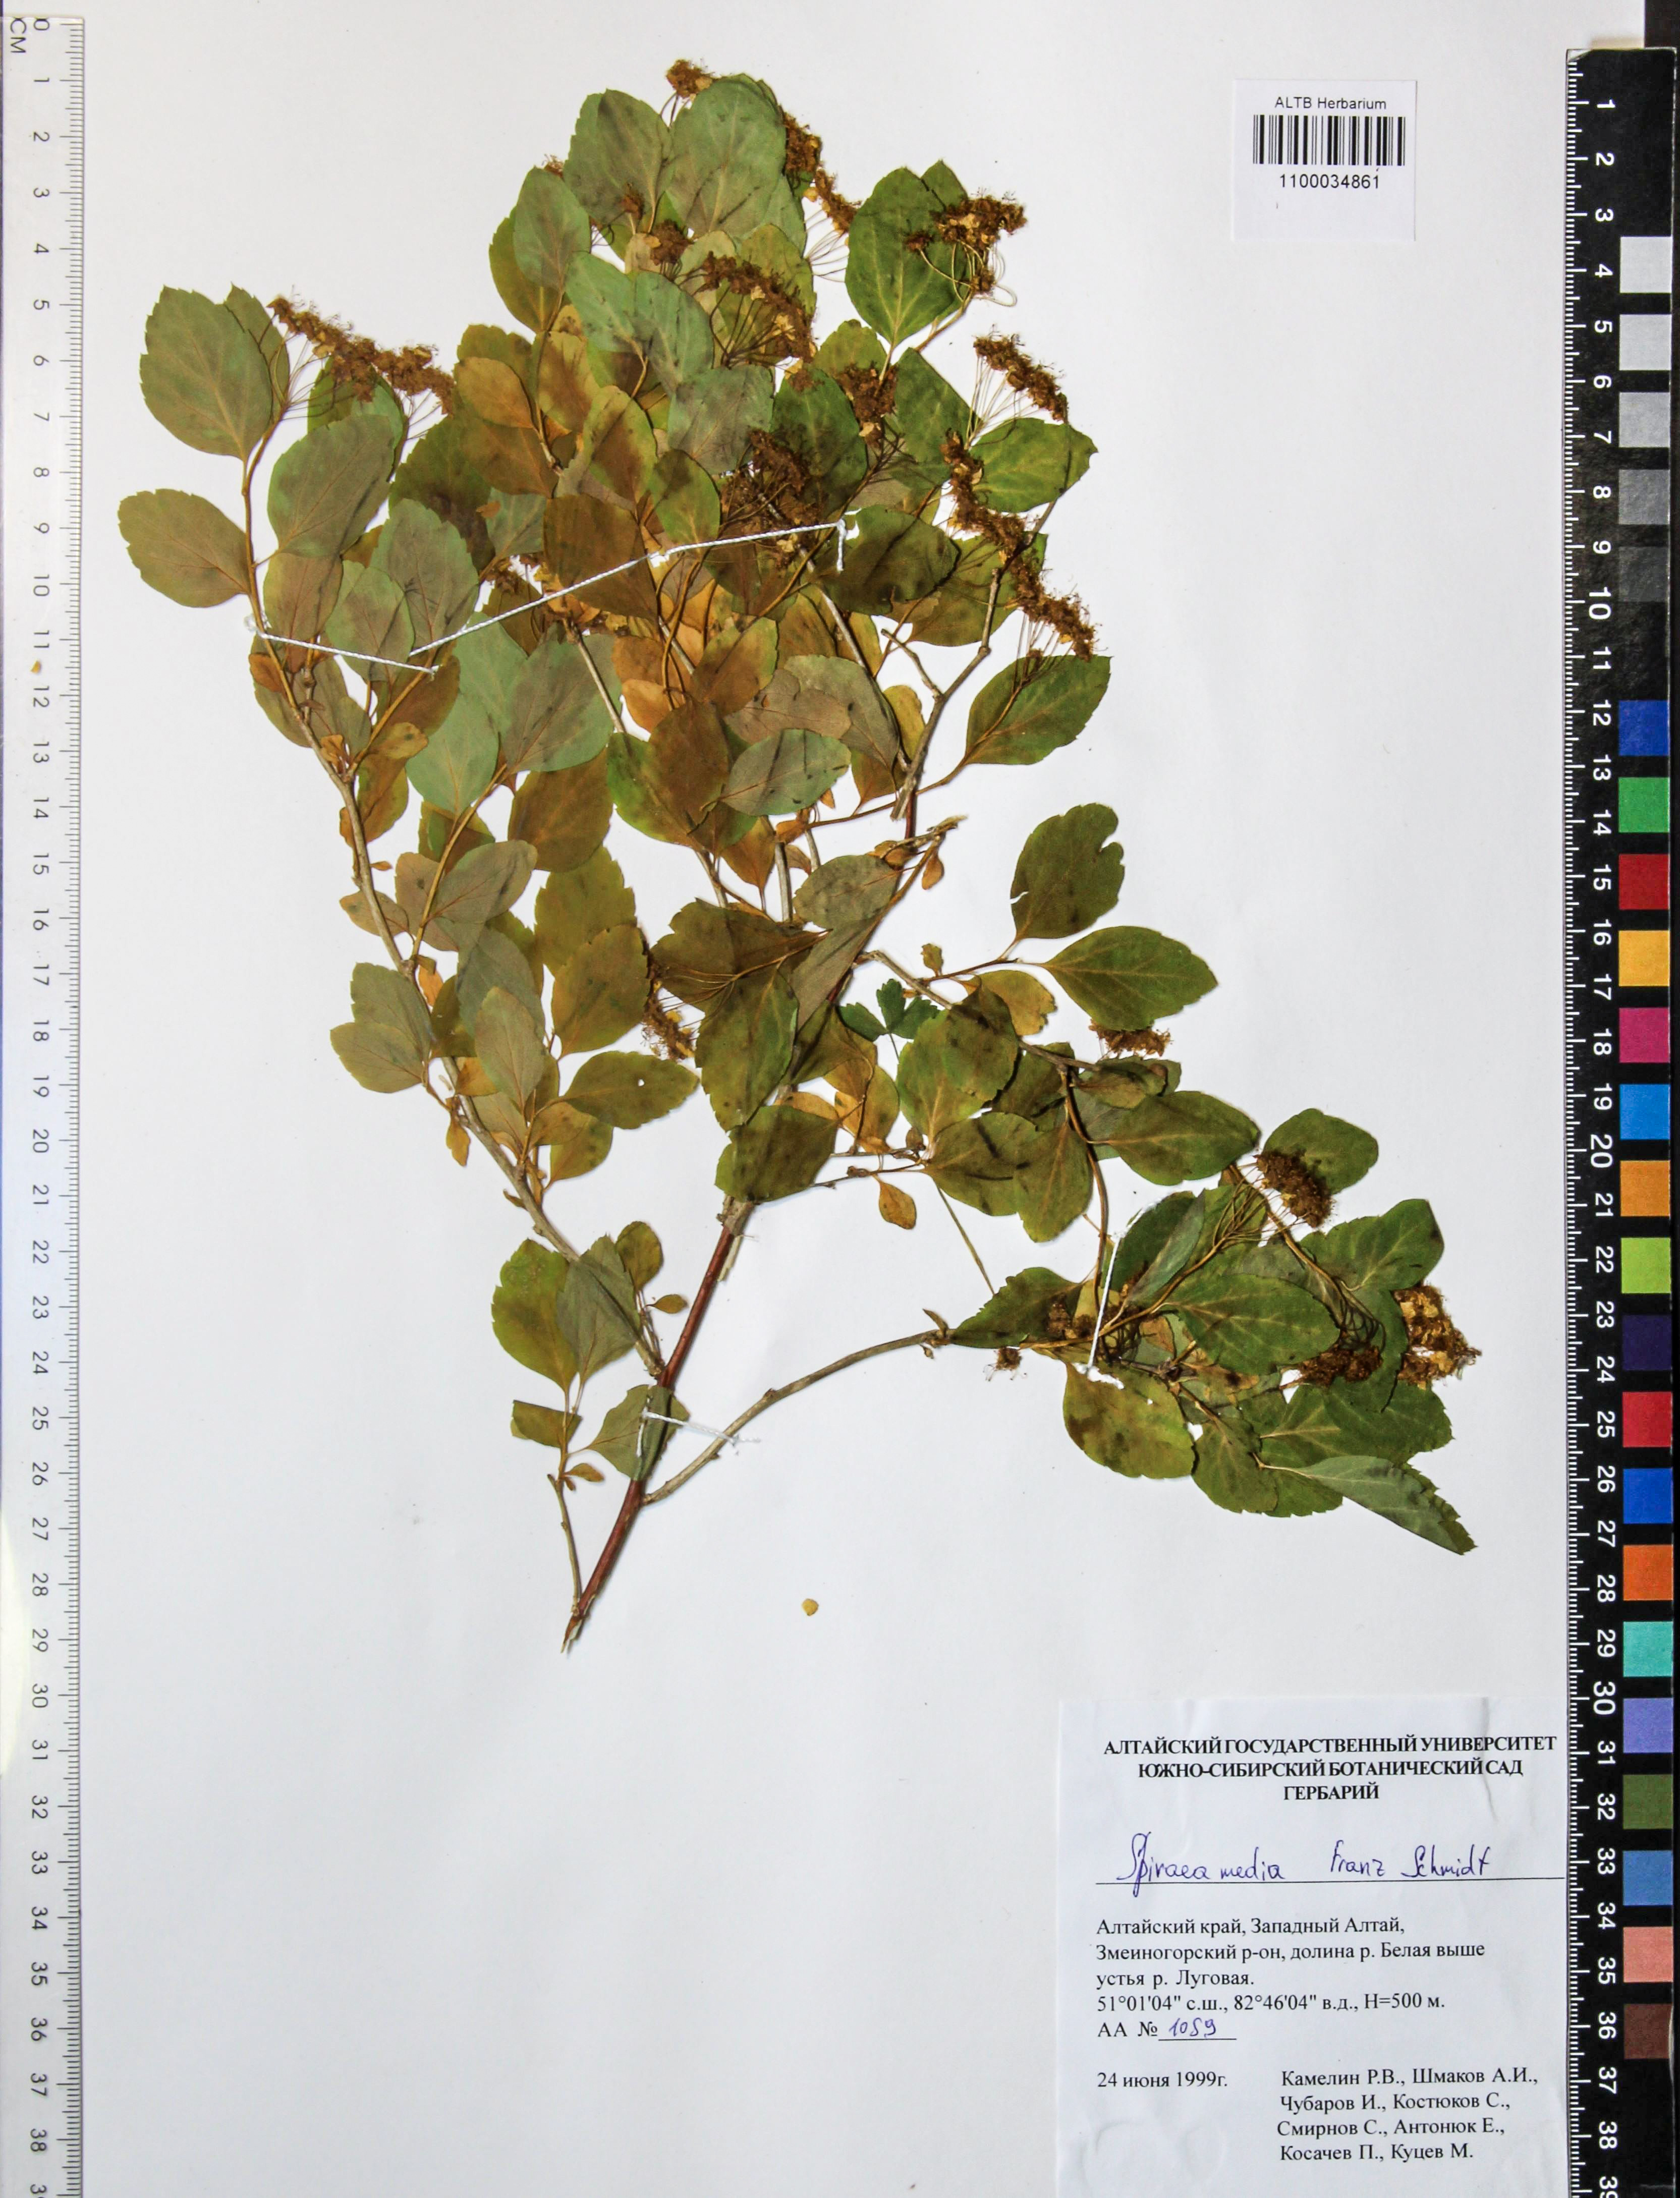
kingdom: Plantae
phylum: Tracheophyta
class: Magnoliopsida
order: Rosales
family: Rosaceae
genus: Spiraea
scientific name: Spiraea media
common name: Russian spiraea
